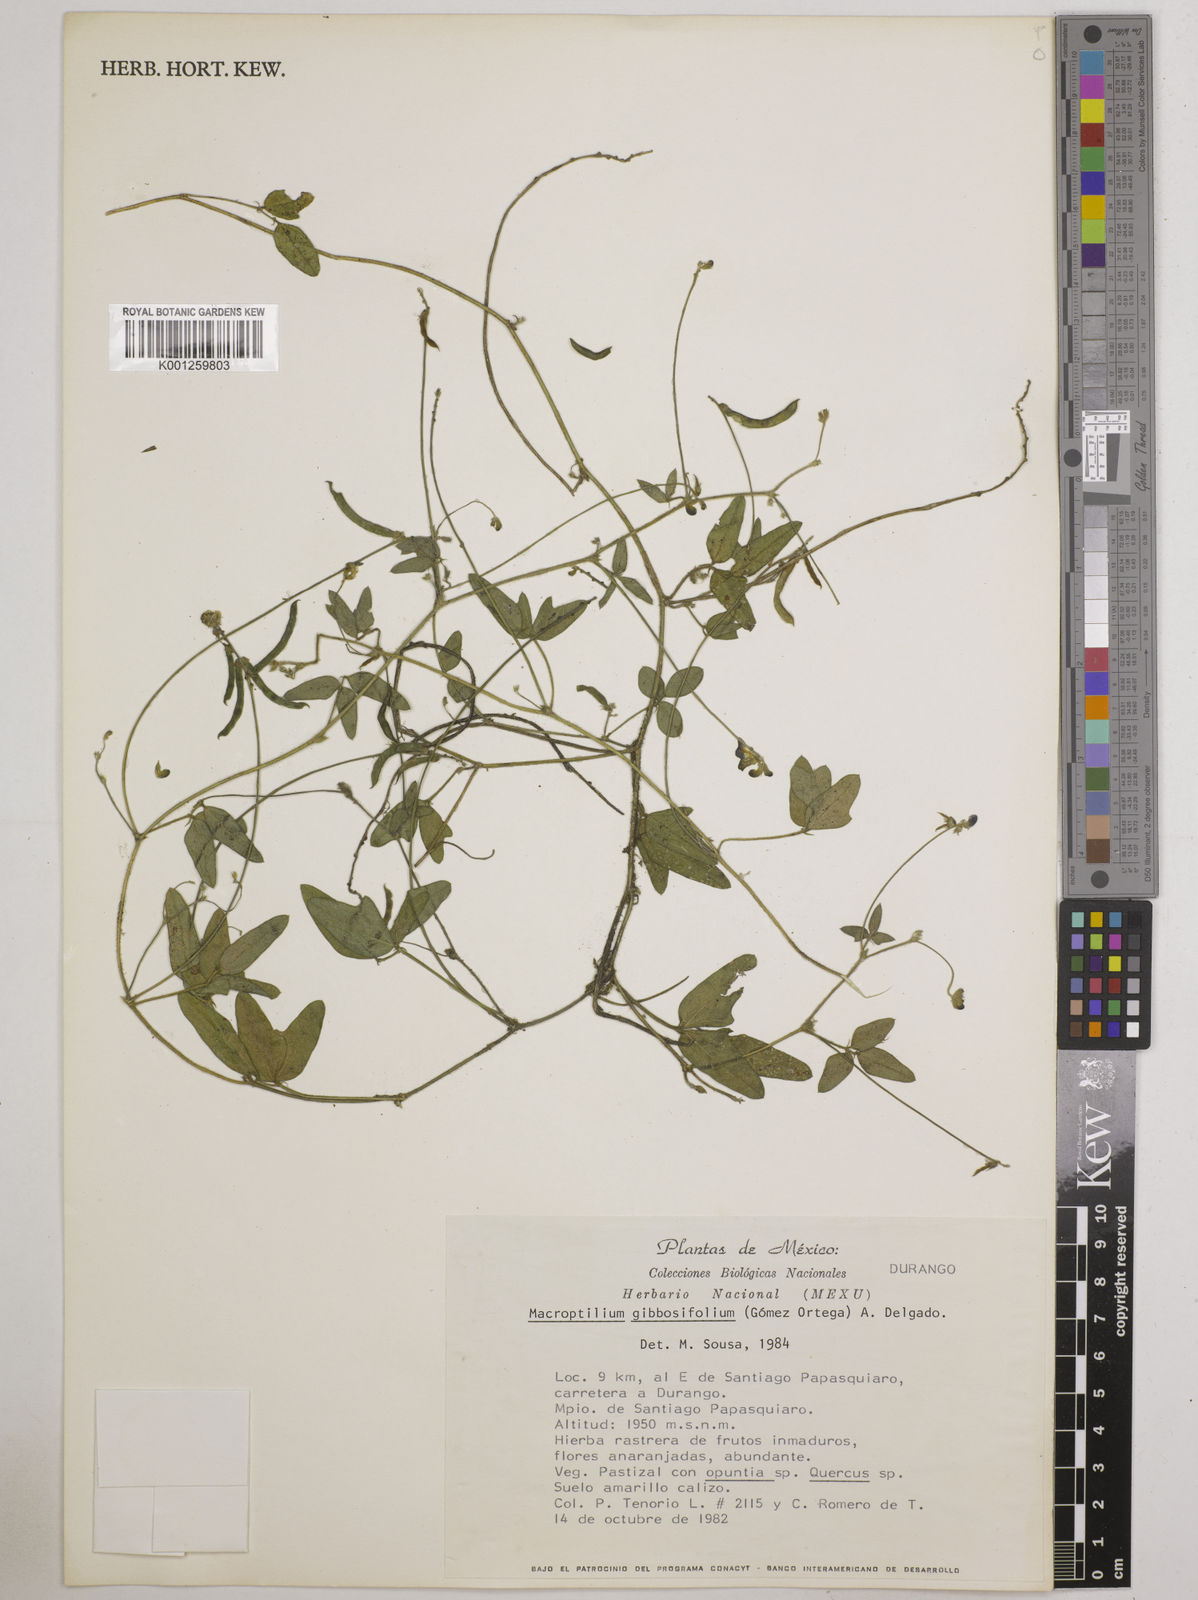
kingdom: Plantae
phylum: Tracheophyta
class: Magnoliopsida
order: Fabales
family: Fabaceae
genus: Macroptilium
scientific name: Macroptilium gibbosifolium
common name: Variableleaf bushbean
